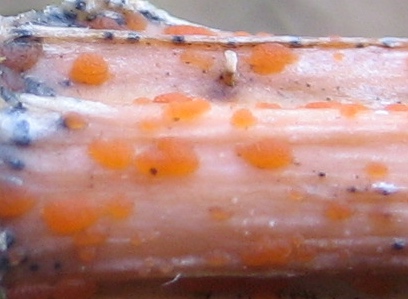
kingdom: Fungi
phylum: Ascomycota
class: Leotiomycetes
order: Helotiales
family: Calloriaceae
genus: Calloria
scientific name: Calloria urticae
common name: nælde-orangeskive
